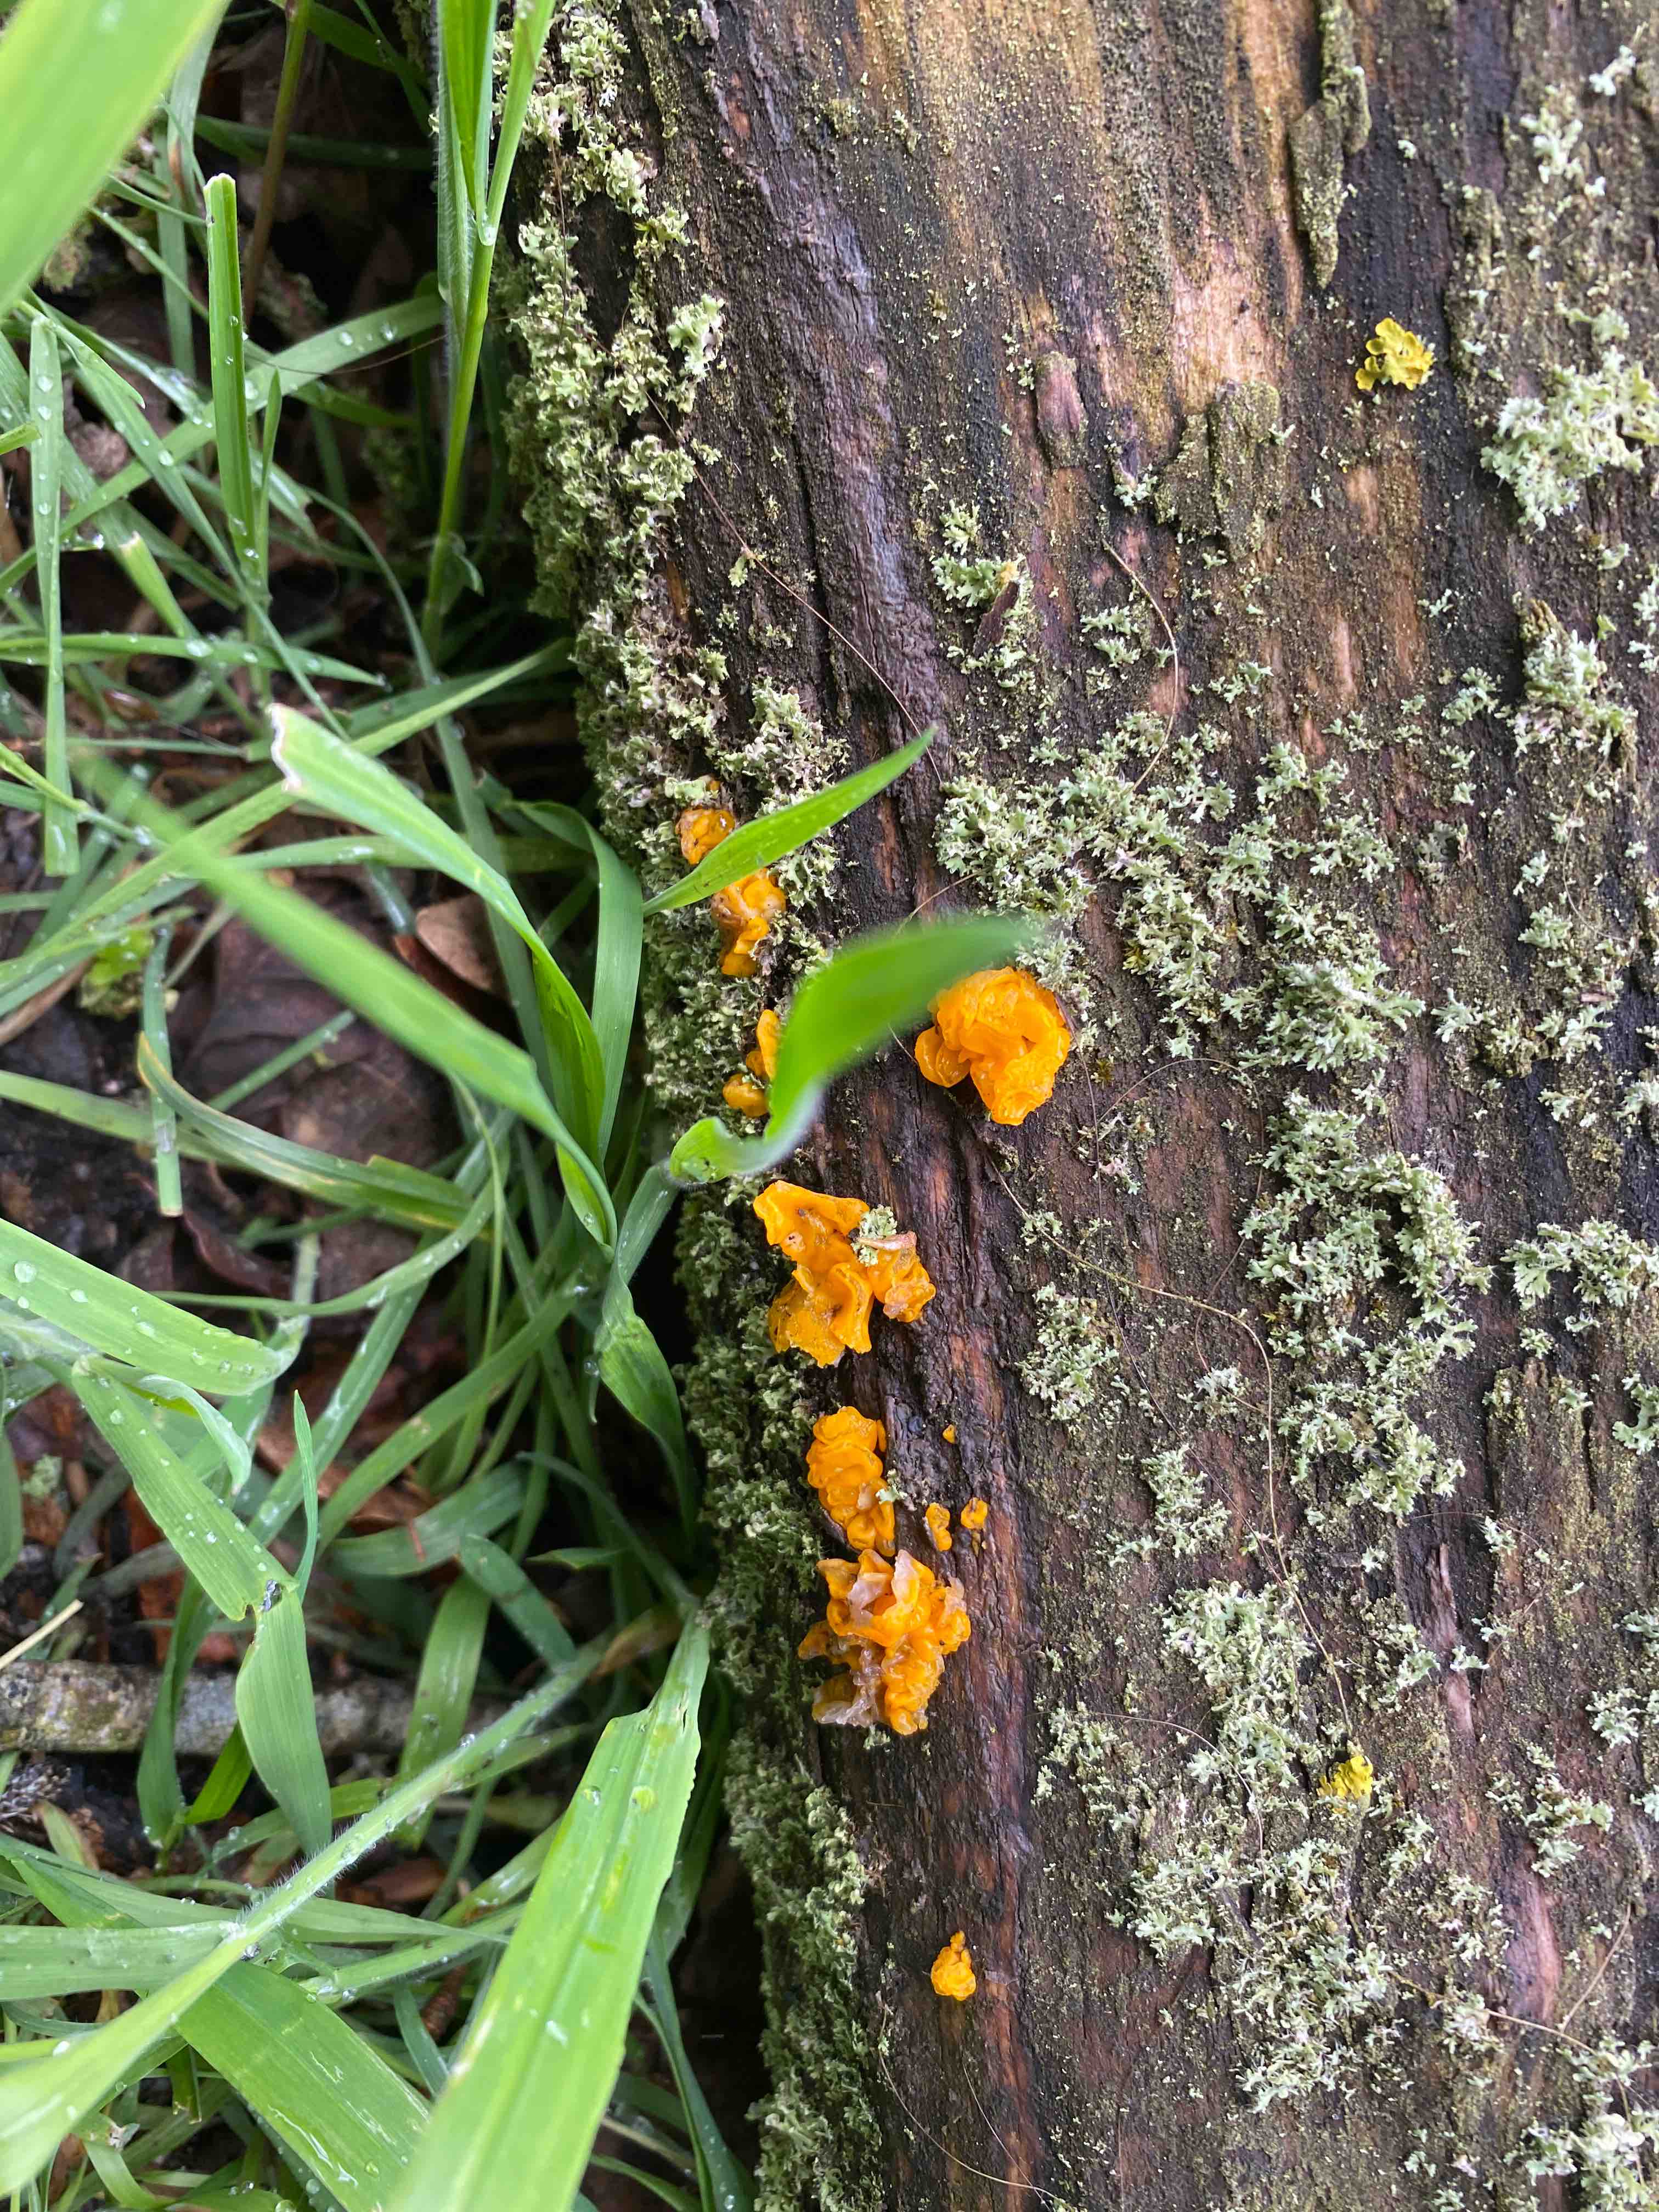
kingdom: Fungi
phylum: Basidiomycota
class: Tremellomycetes
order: Tremellales
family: Tremellaceae
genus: Tremella
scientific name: Tremella mesenterica
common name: gul bævresvamp
